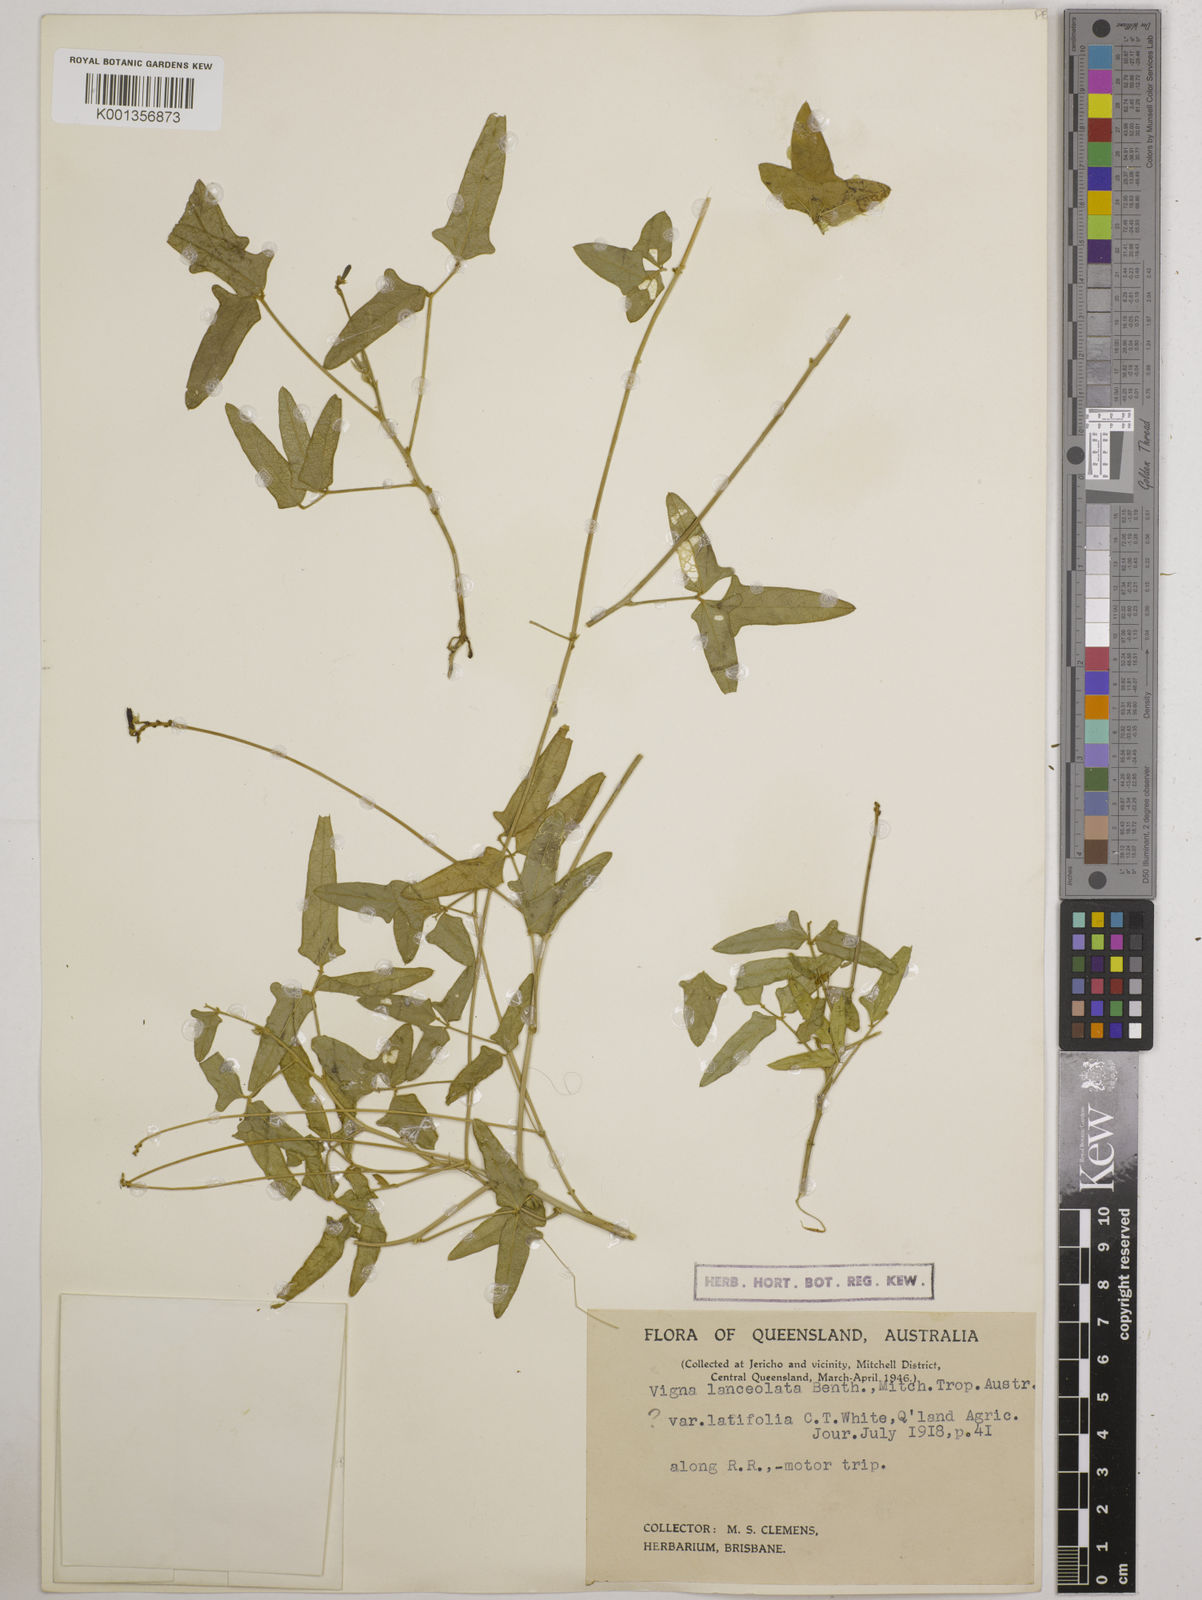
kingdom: Plantae
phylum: Tracheophyta
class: Magnoliopsida
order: Fabales
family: Fabaceae
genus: Vigna
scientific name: Vigna lanceolata
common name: Maloga-bean
